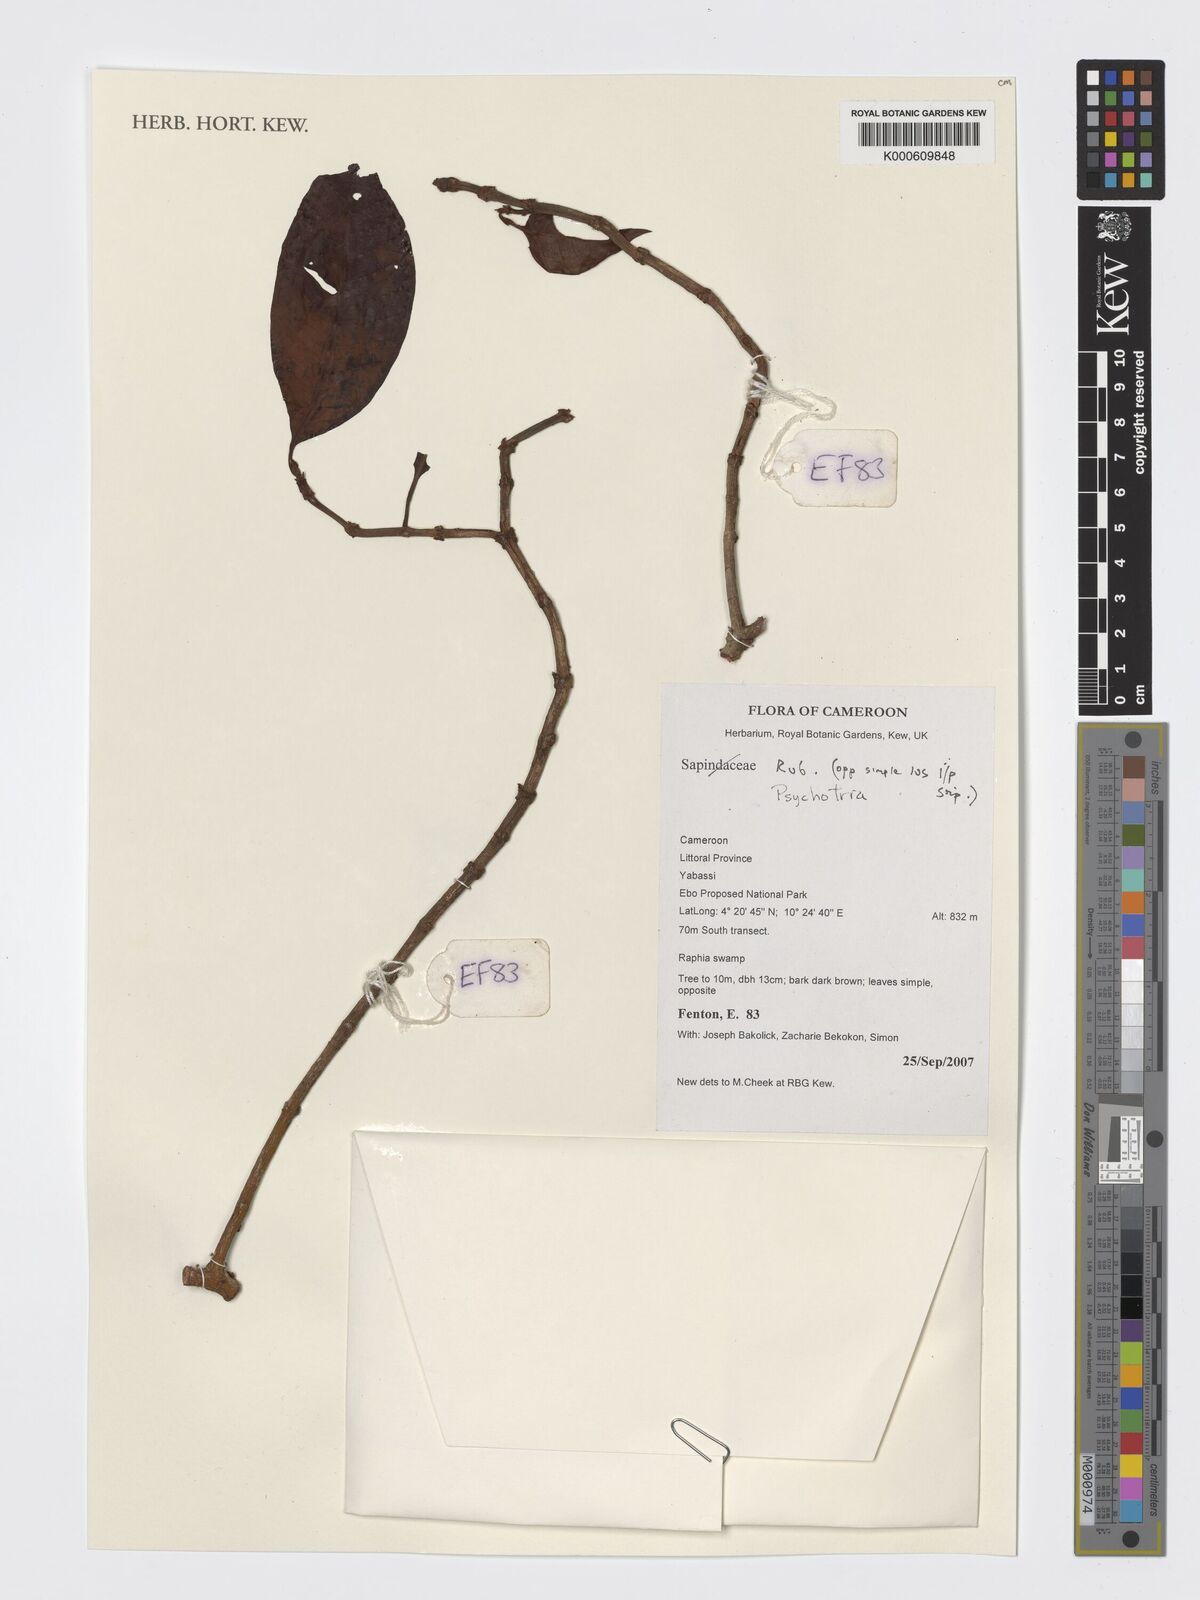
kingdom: Plantae
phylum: Tracheophyta
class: Magnoliopsida
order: Gentianales
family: Rubiaceae
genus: Psychotria
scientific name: Psychotria
